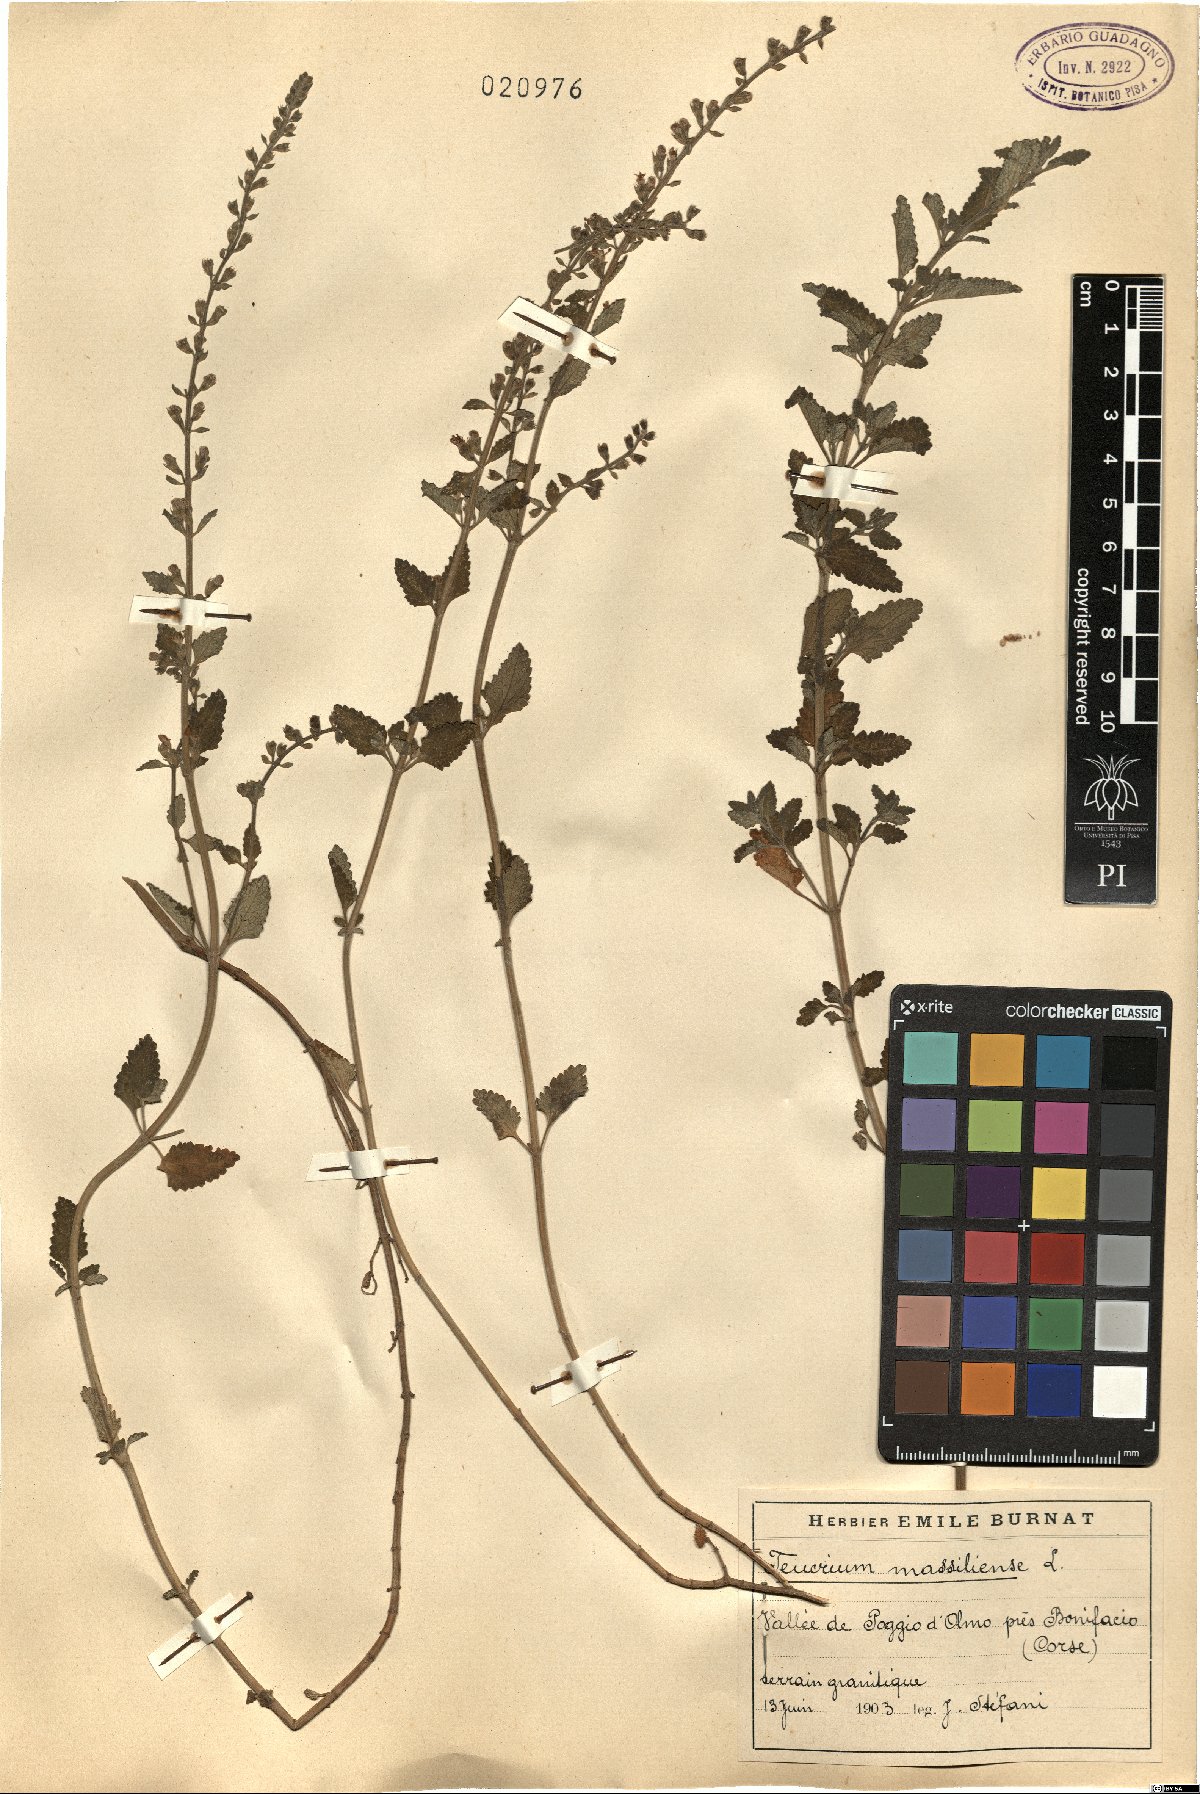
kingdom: Plantae
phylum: Tracheophyta
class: Magnoliopsida
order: Lamiales
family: Lamiaceae
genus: Teucrium
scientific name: Teucrium massiliense
